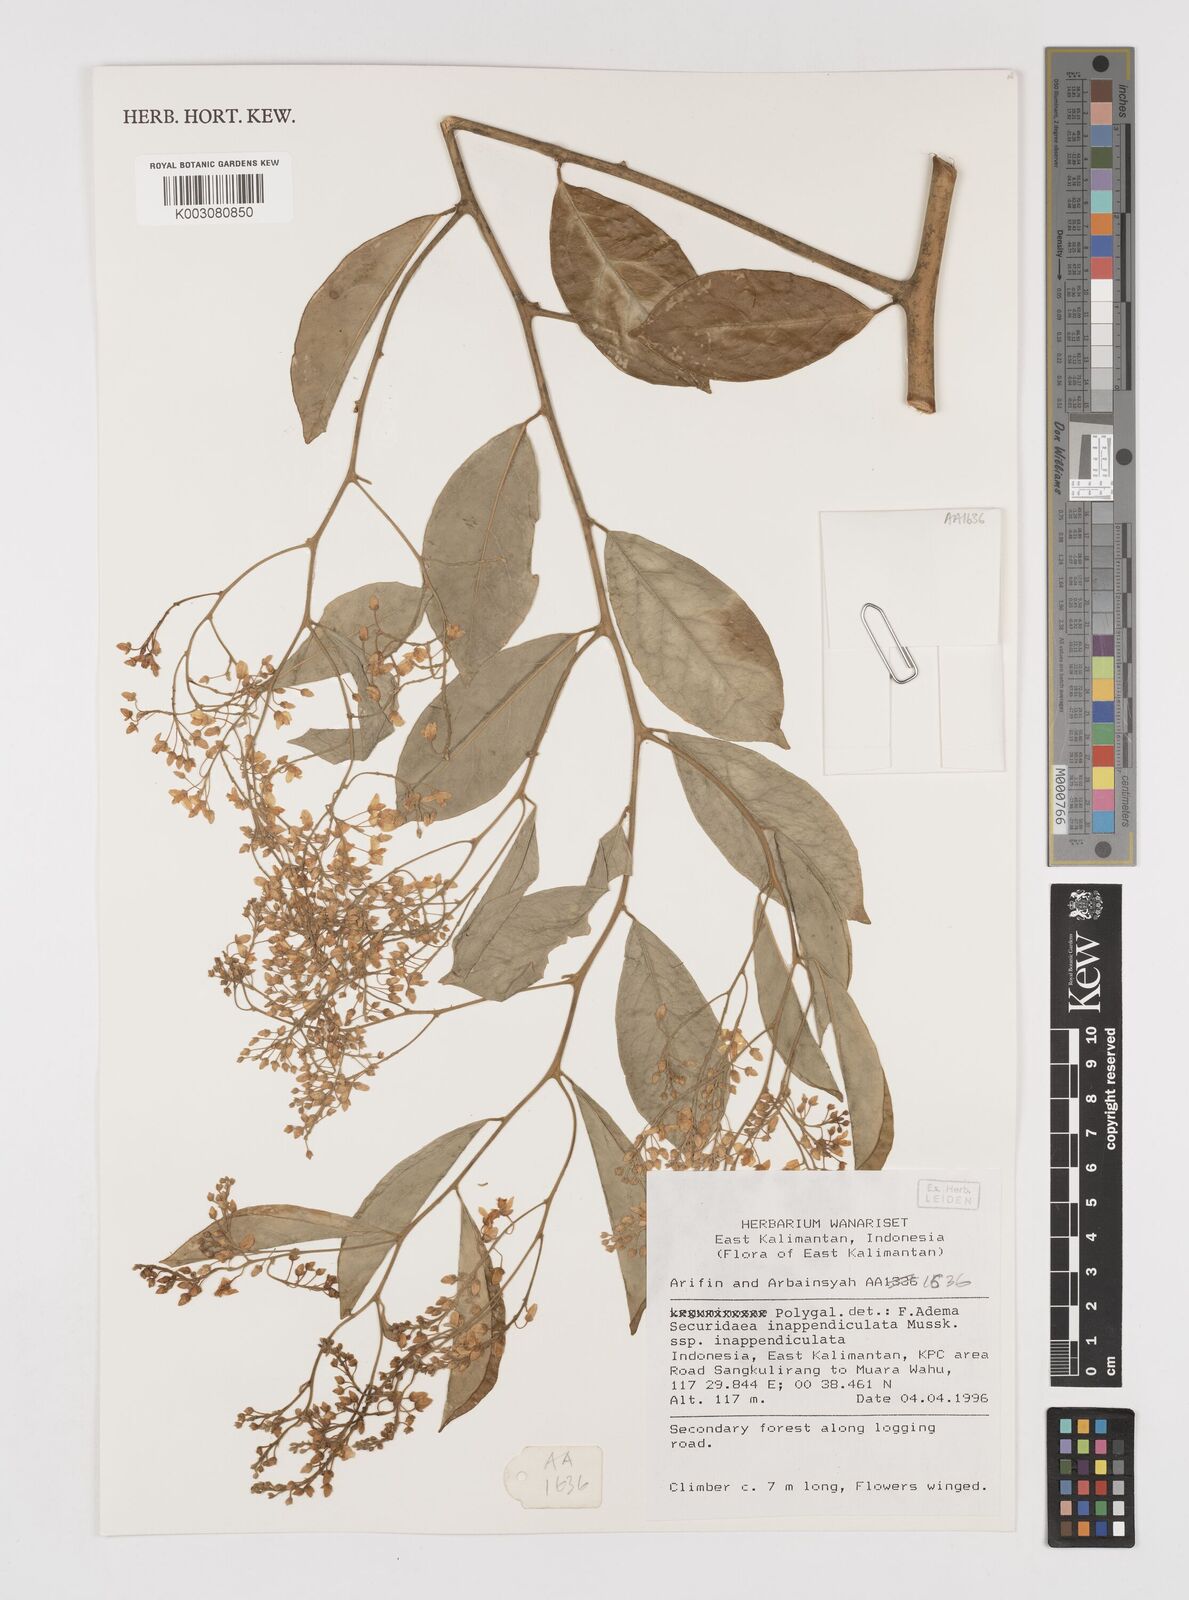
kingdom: Plantae
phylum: Tracheophyta
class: Magnoliopsida
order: Fabales
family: Polygalaceae
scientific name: Polygalaceae
